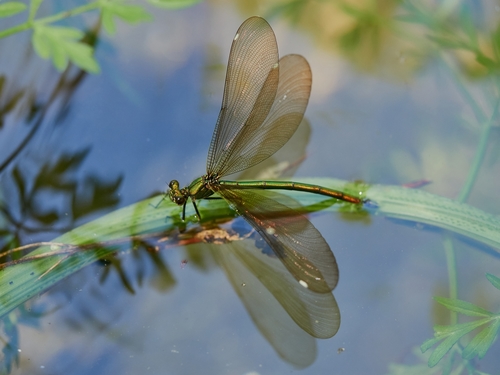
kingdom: Animalia
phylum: Arthropoda
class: Insecta
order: Odonata
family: Calopterygidae
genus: Calopteryx
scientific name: Calopteryx virgo
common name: Beautiful demoiselle
